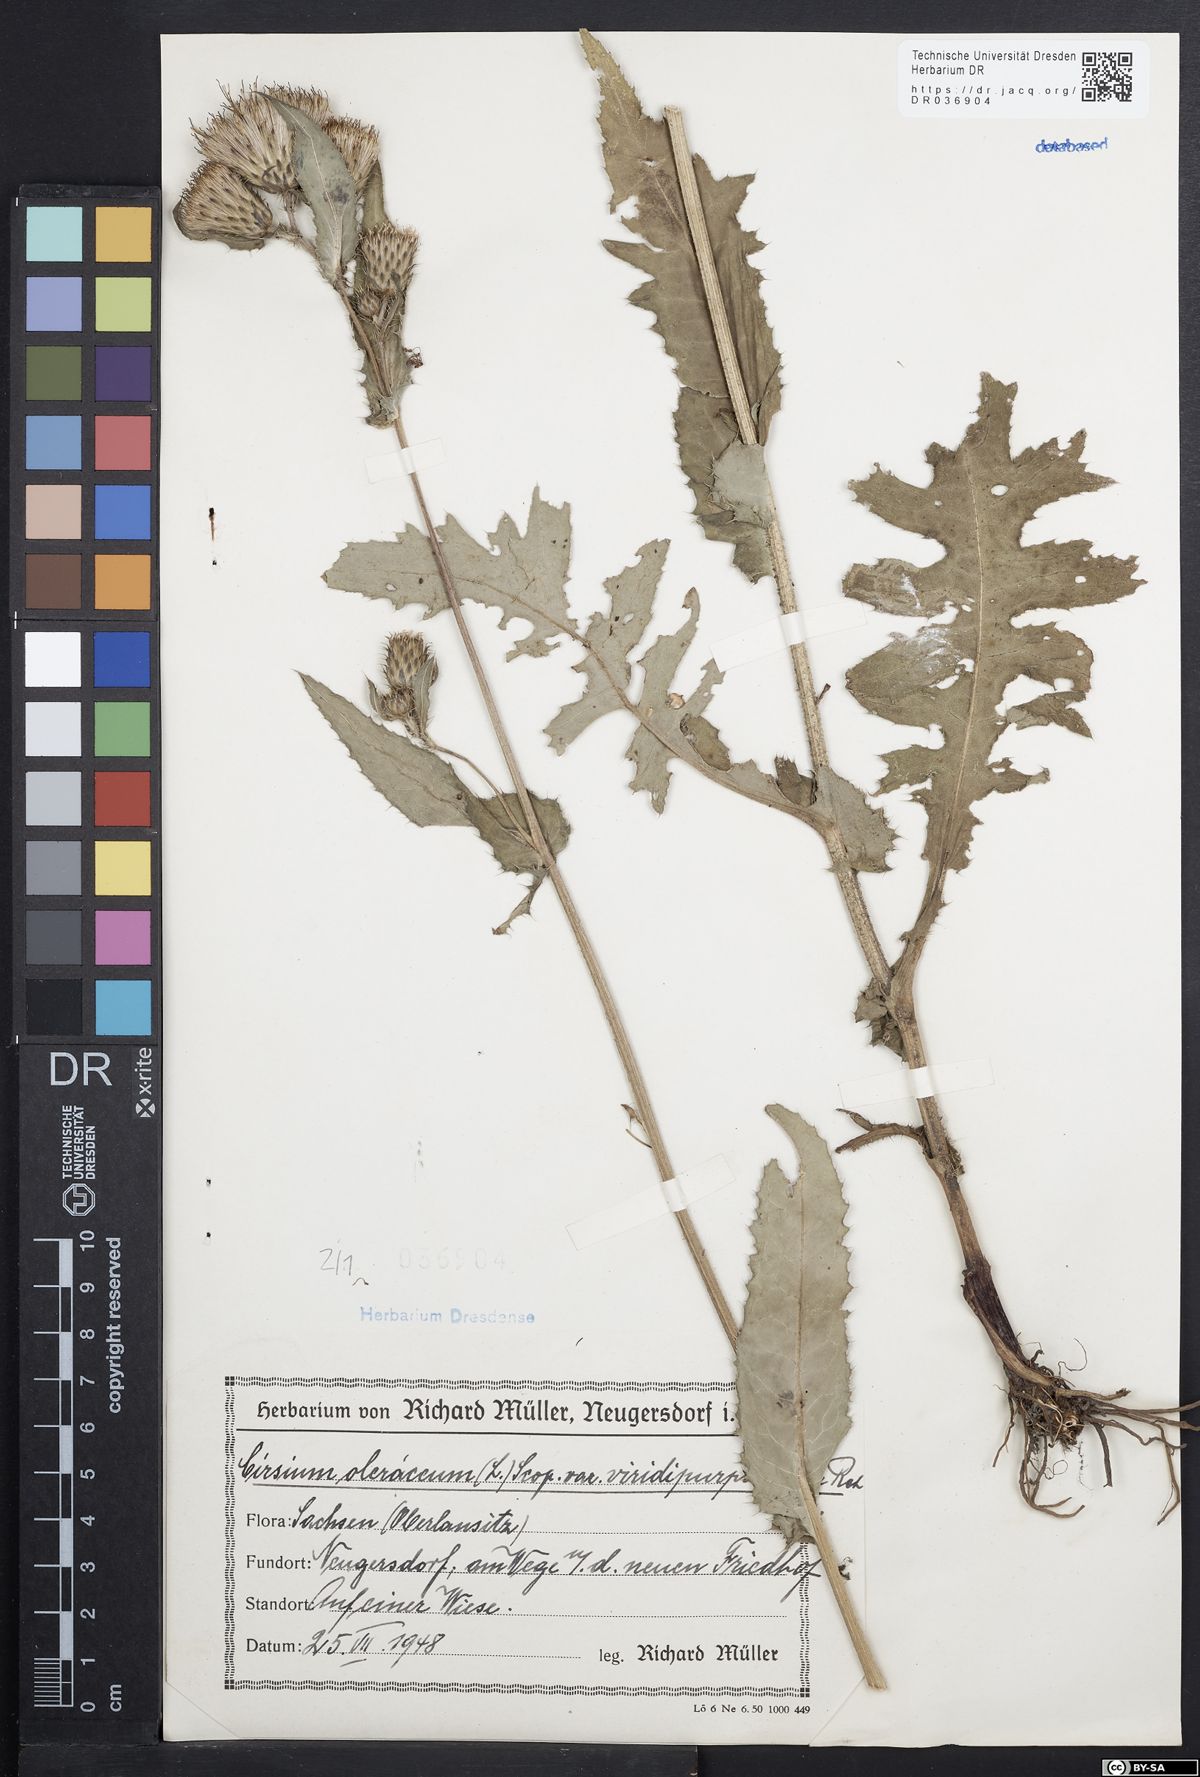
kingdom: Plantae
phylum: Tracheophyta
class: Magnoliopsida
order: Asterales
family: Asteraceae
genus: Cirsium
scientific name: Cirsium oleraceum
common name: Cabbage thistle
